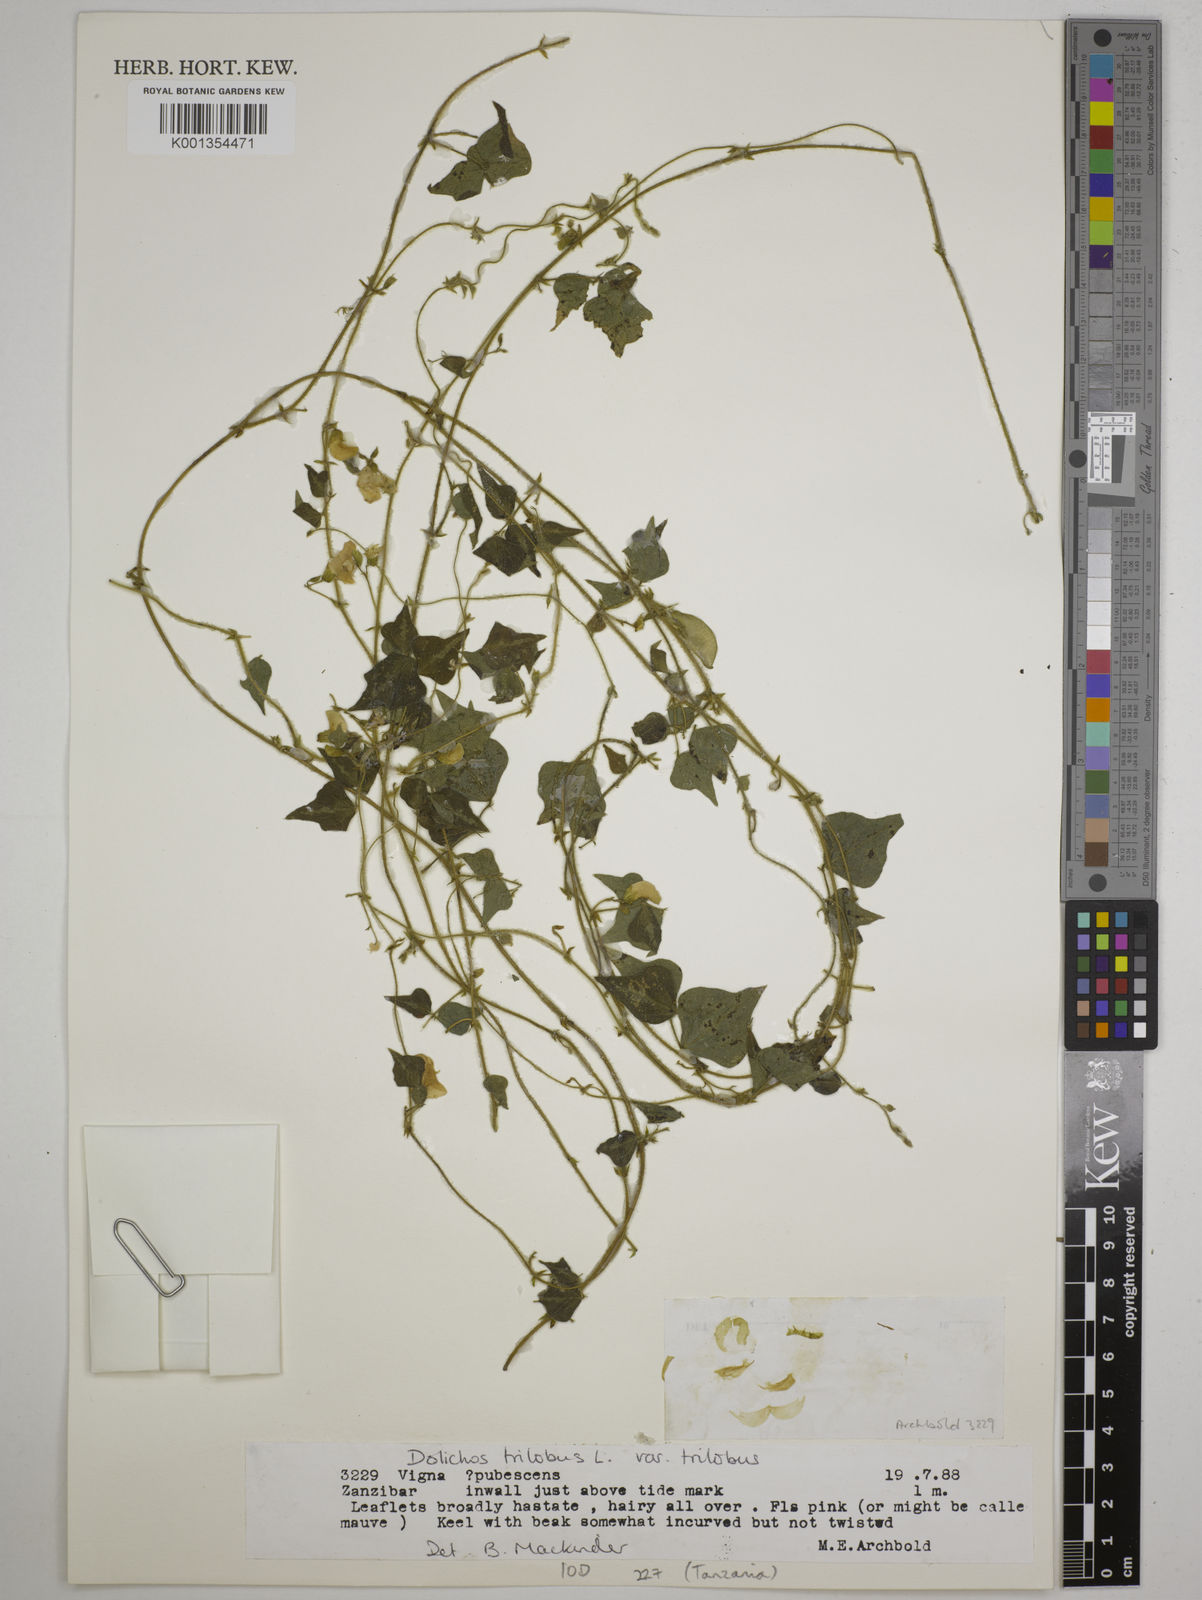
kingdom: Plantae
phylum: Tracheophyta
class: Magnoliopsida
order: Fabales
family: Fabaceae
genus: Dolichos
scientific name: Dolichos
